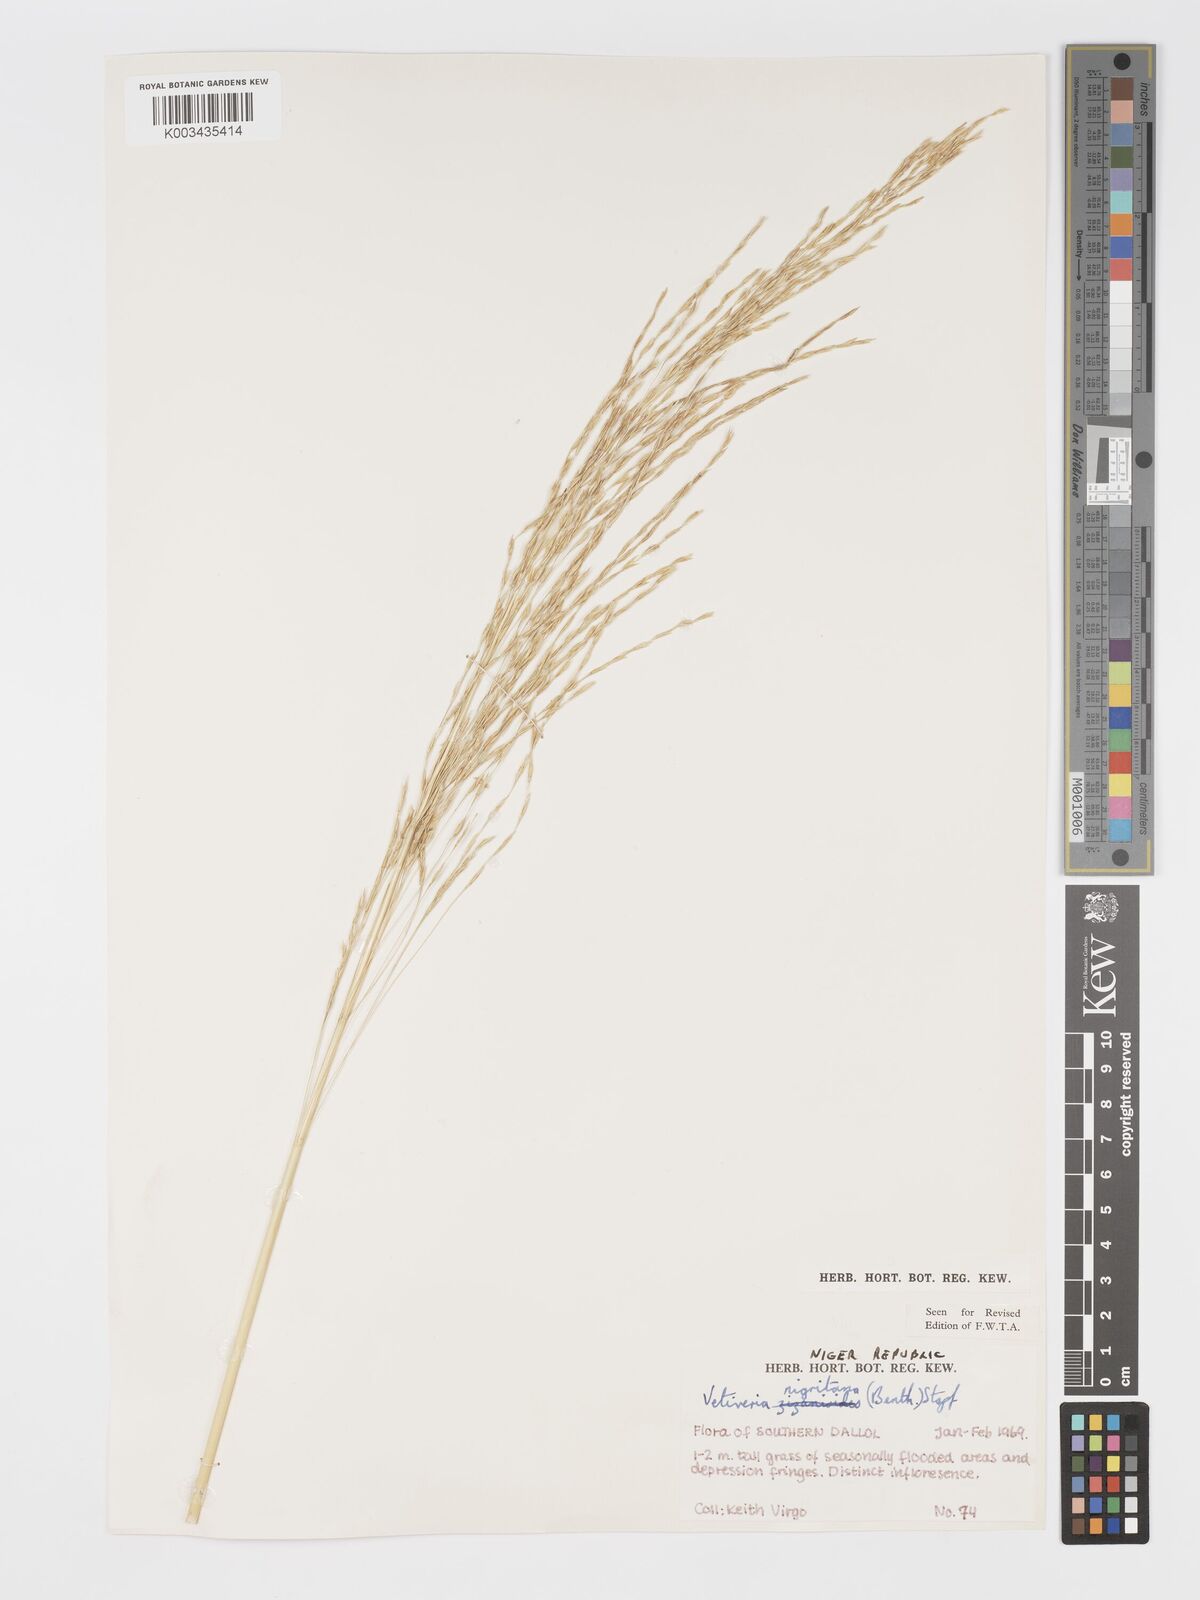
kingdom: Plantae
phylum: Tracheophyta
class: Liliopsida
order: Poales
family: Poaceae
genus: Chrysopogon
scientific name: Chrysopogon nigritanus
